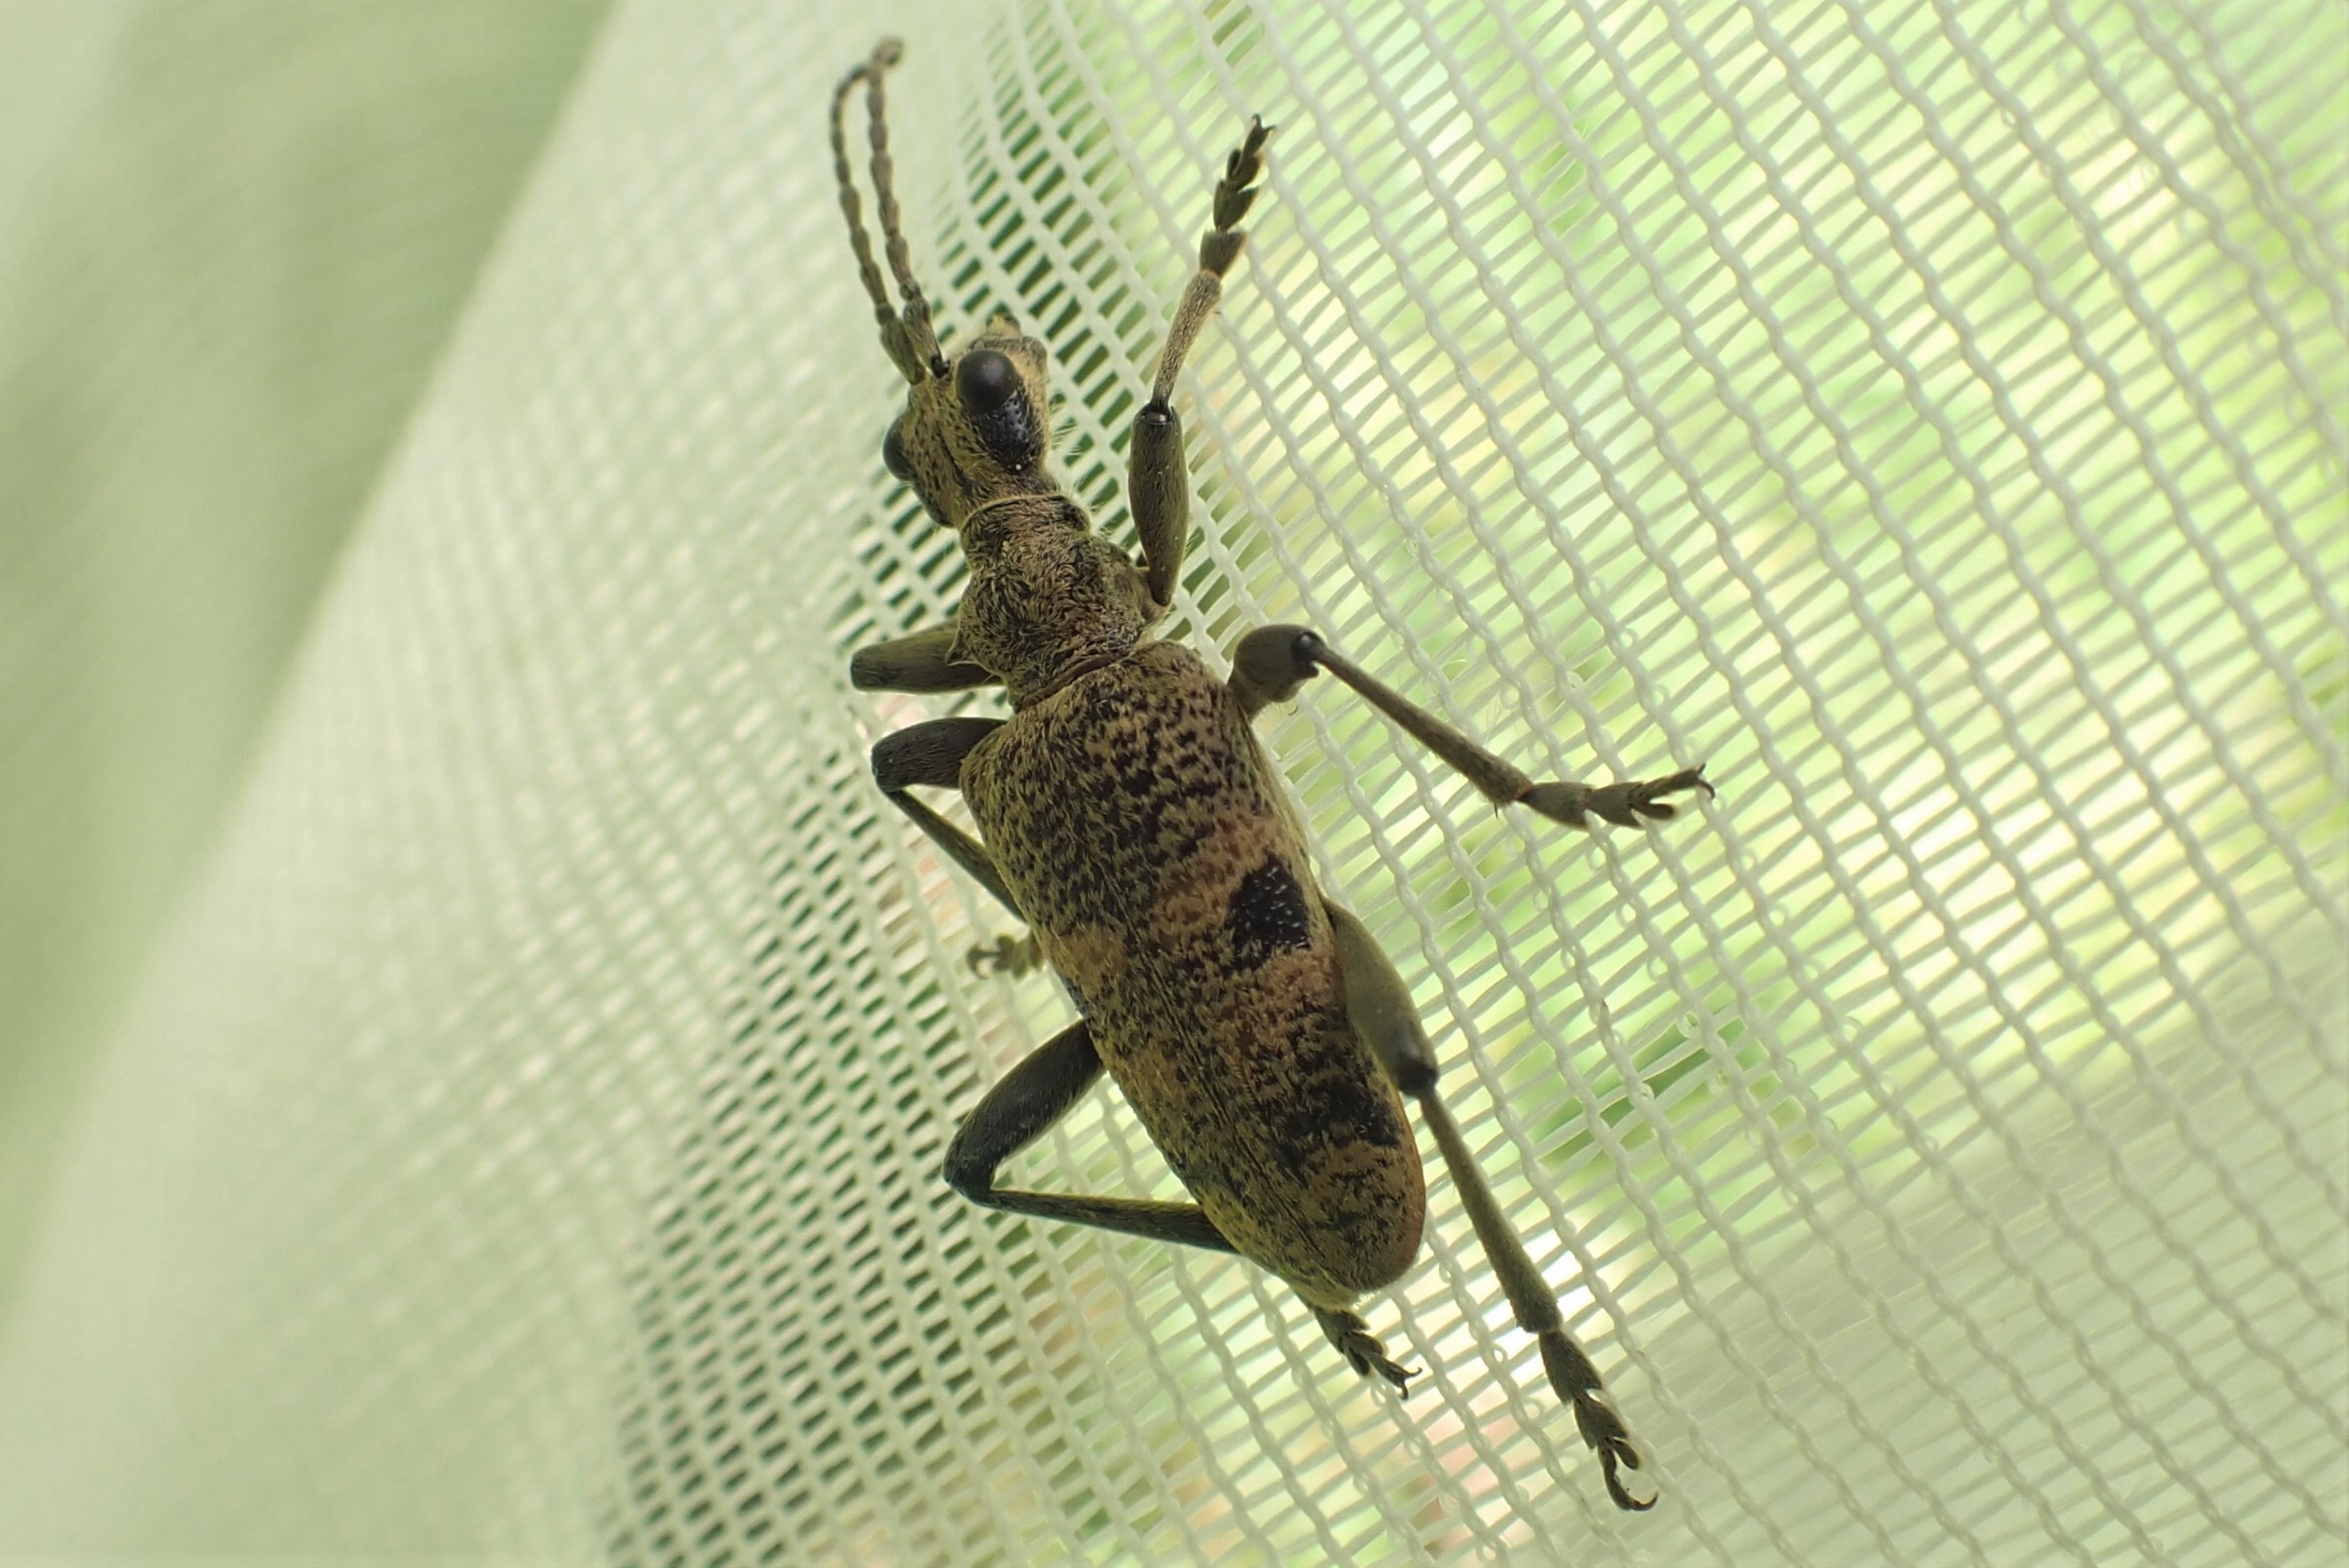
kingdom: Animalia
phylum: Arthropoda
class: Insecta
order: Coleoptera
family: Cerambycidae
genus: Rhagium
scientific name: Rhagium mordax
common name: Blankplettet tandbuk
